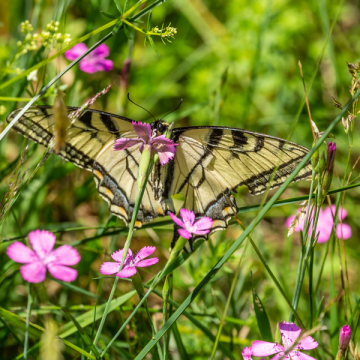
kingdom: Animalia
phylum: Arthropoda
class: Insecta
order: Lepidoptera
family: Papilionidae
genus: Pterourus
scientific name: Pterourus canadensis
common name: Canadian Tiger Swallowtail
